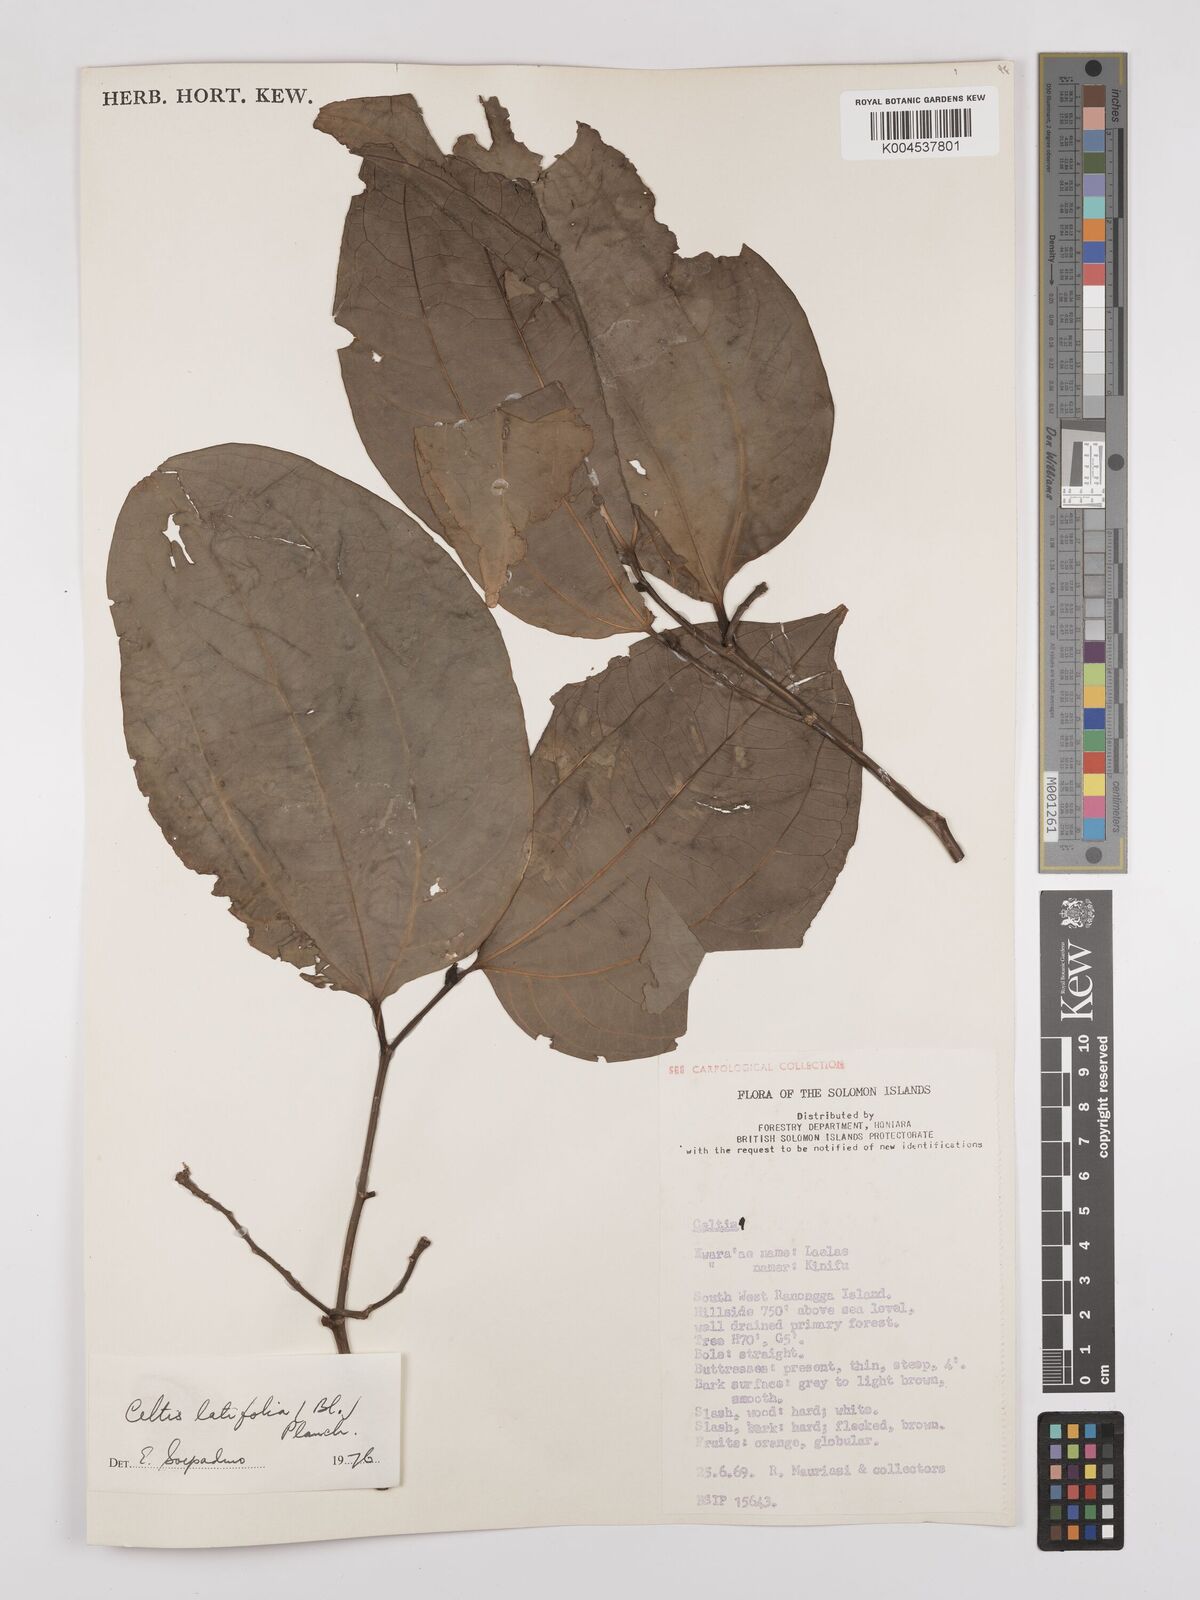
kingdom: Plantae
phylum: Tracheophyta
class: Magnoliopsida
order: Rosales
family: Cannabaceae
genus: Celtis
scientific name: Celtis latifolia
